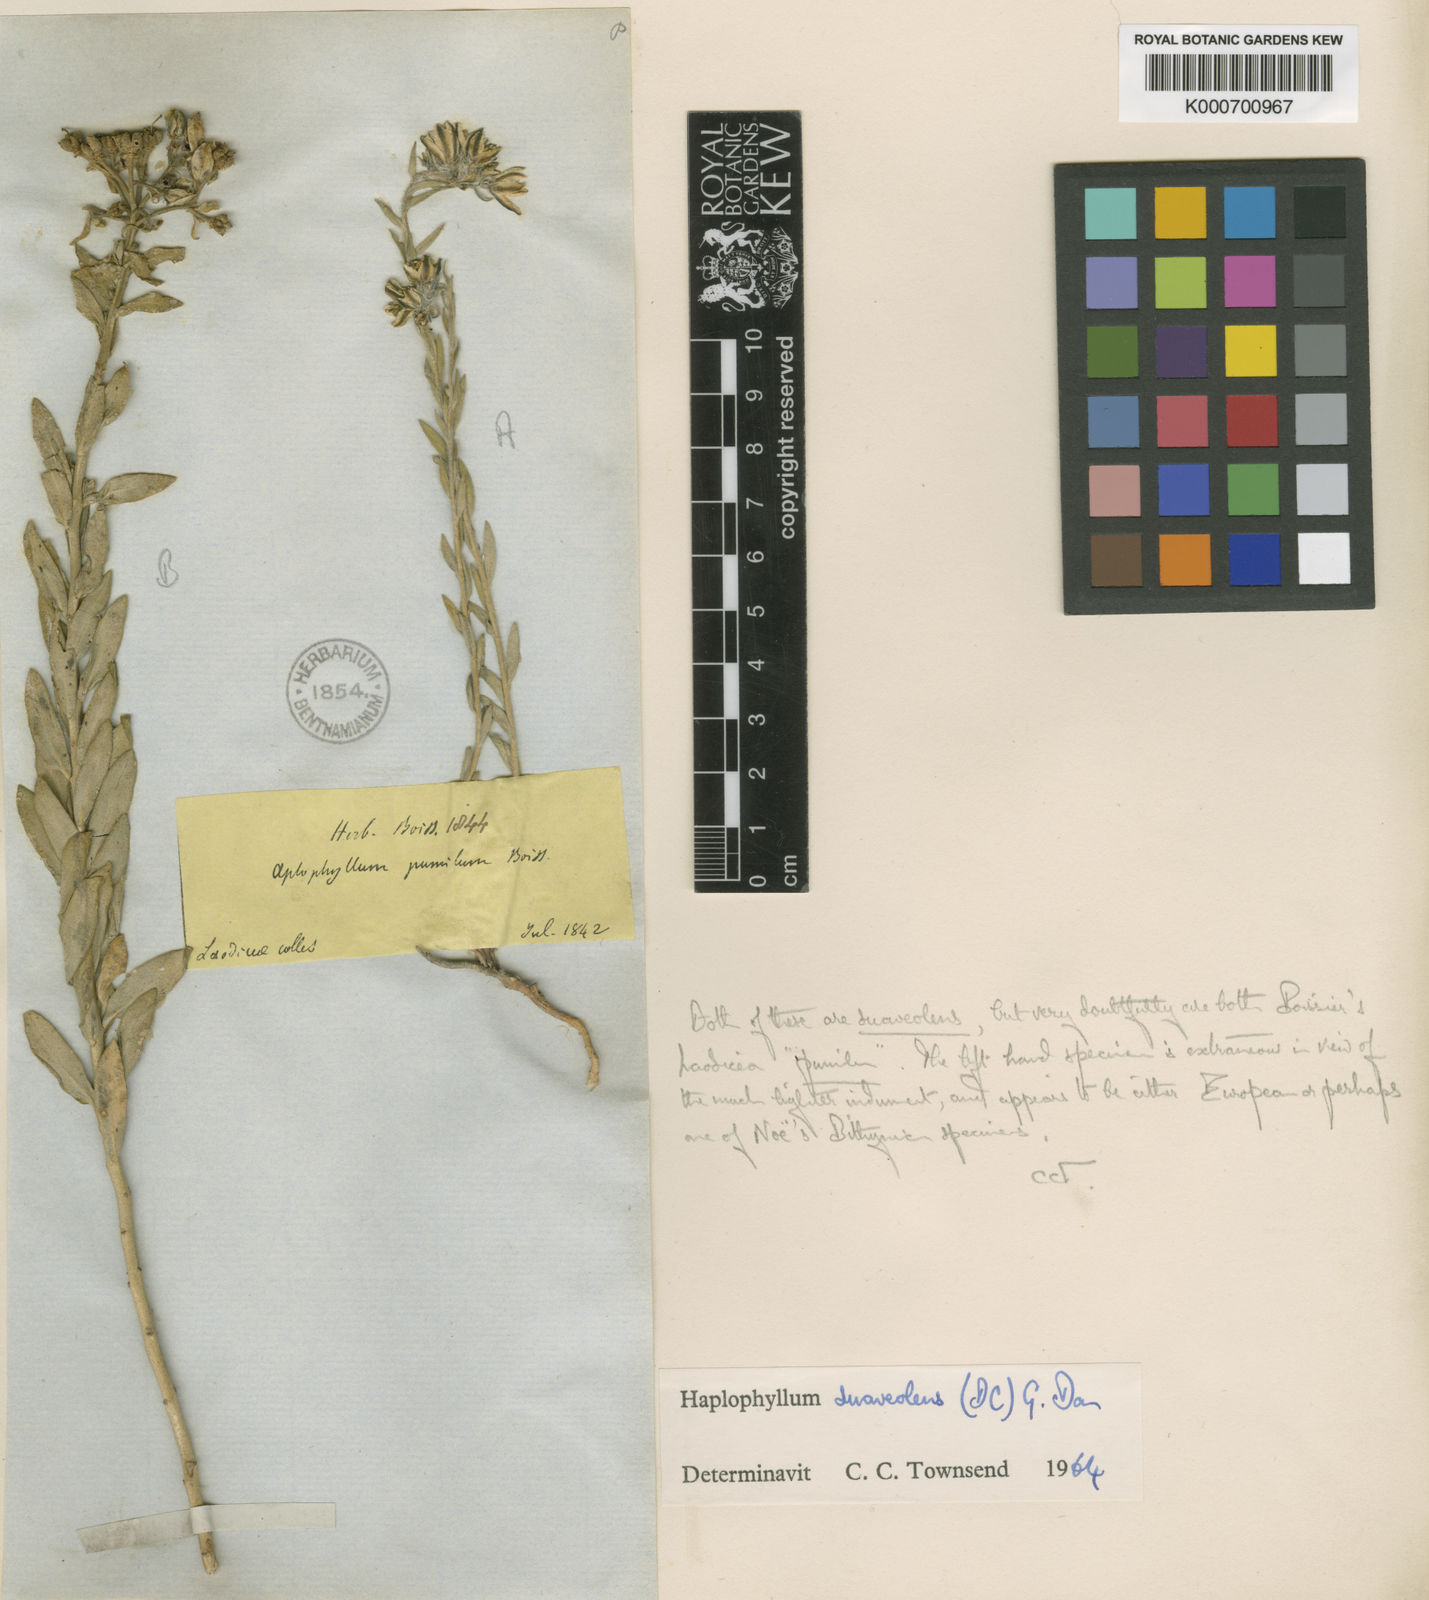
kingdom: Plantae
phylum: Tracheophyta
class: Magnoliopsida
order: Sapindales
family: Rutaceae
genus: Haplophyllum
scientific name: Haplophyllum suaveolens
